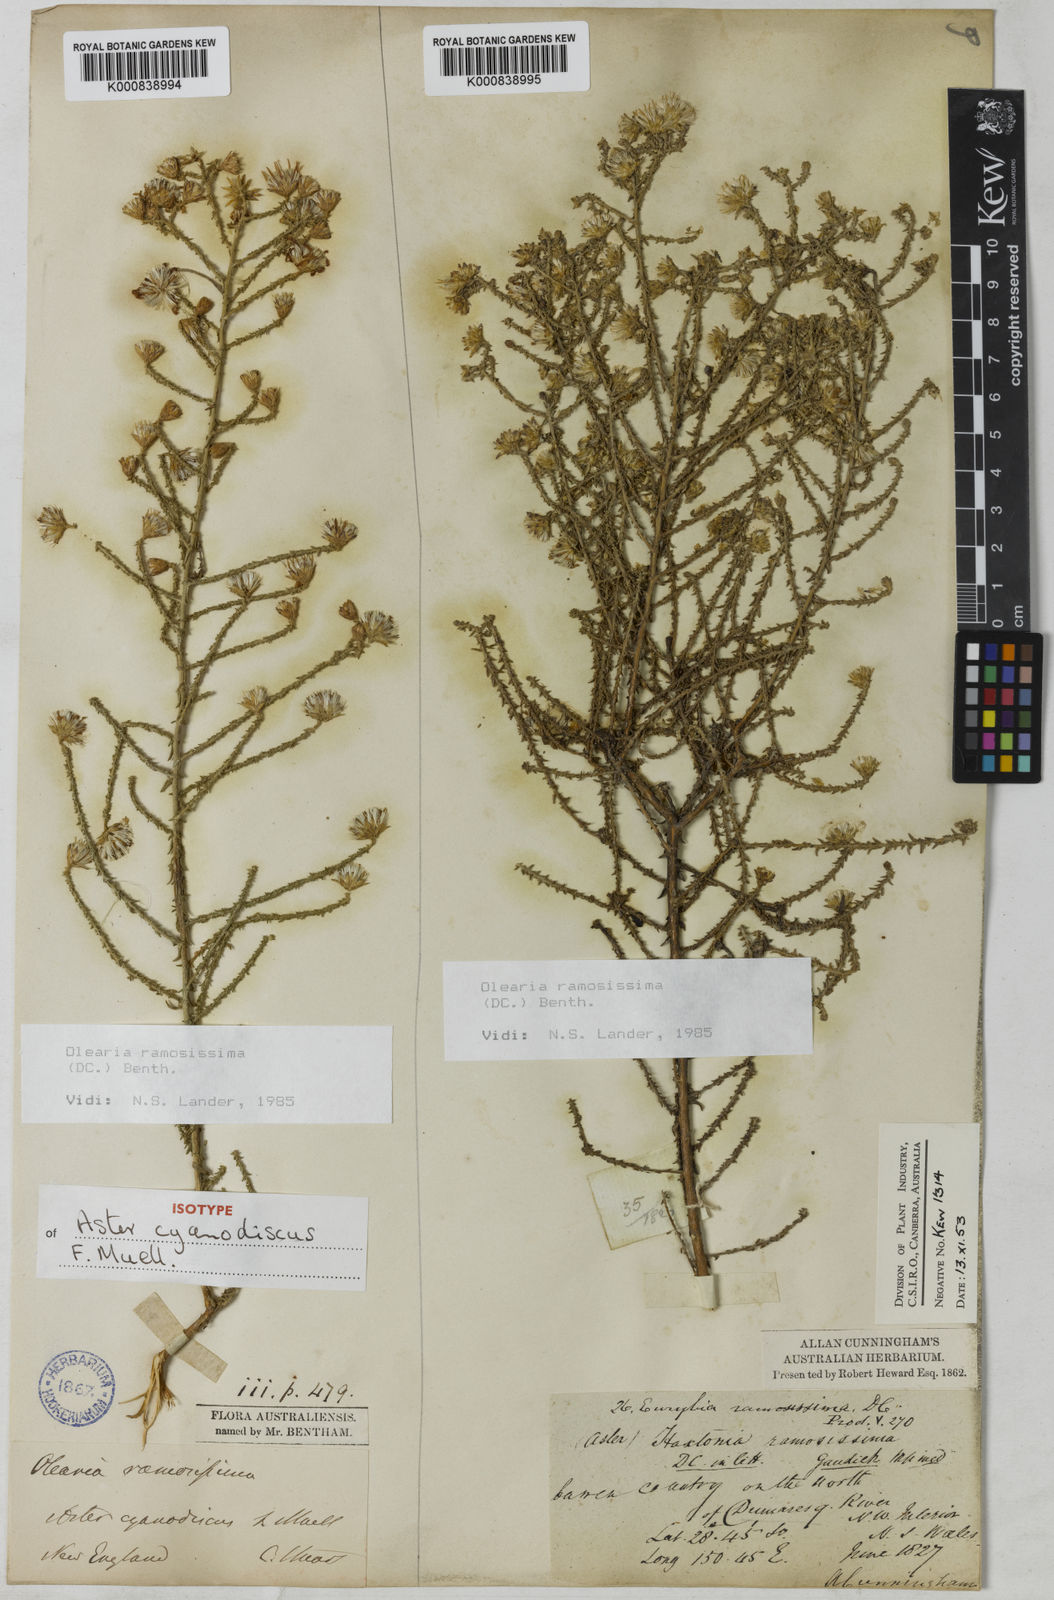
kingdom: Plantae
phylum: Tracheophyta
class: Magnoliopsida
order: Asterales
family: Asteraceae
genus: Olearia
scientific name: Olearia ramosissima
